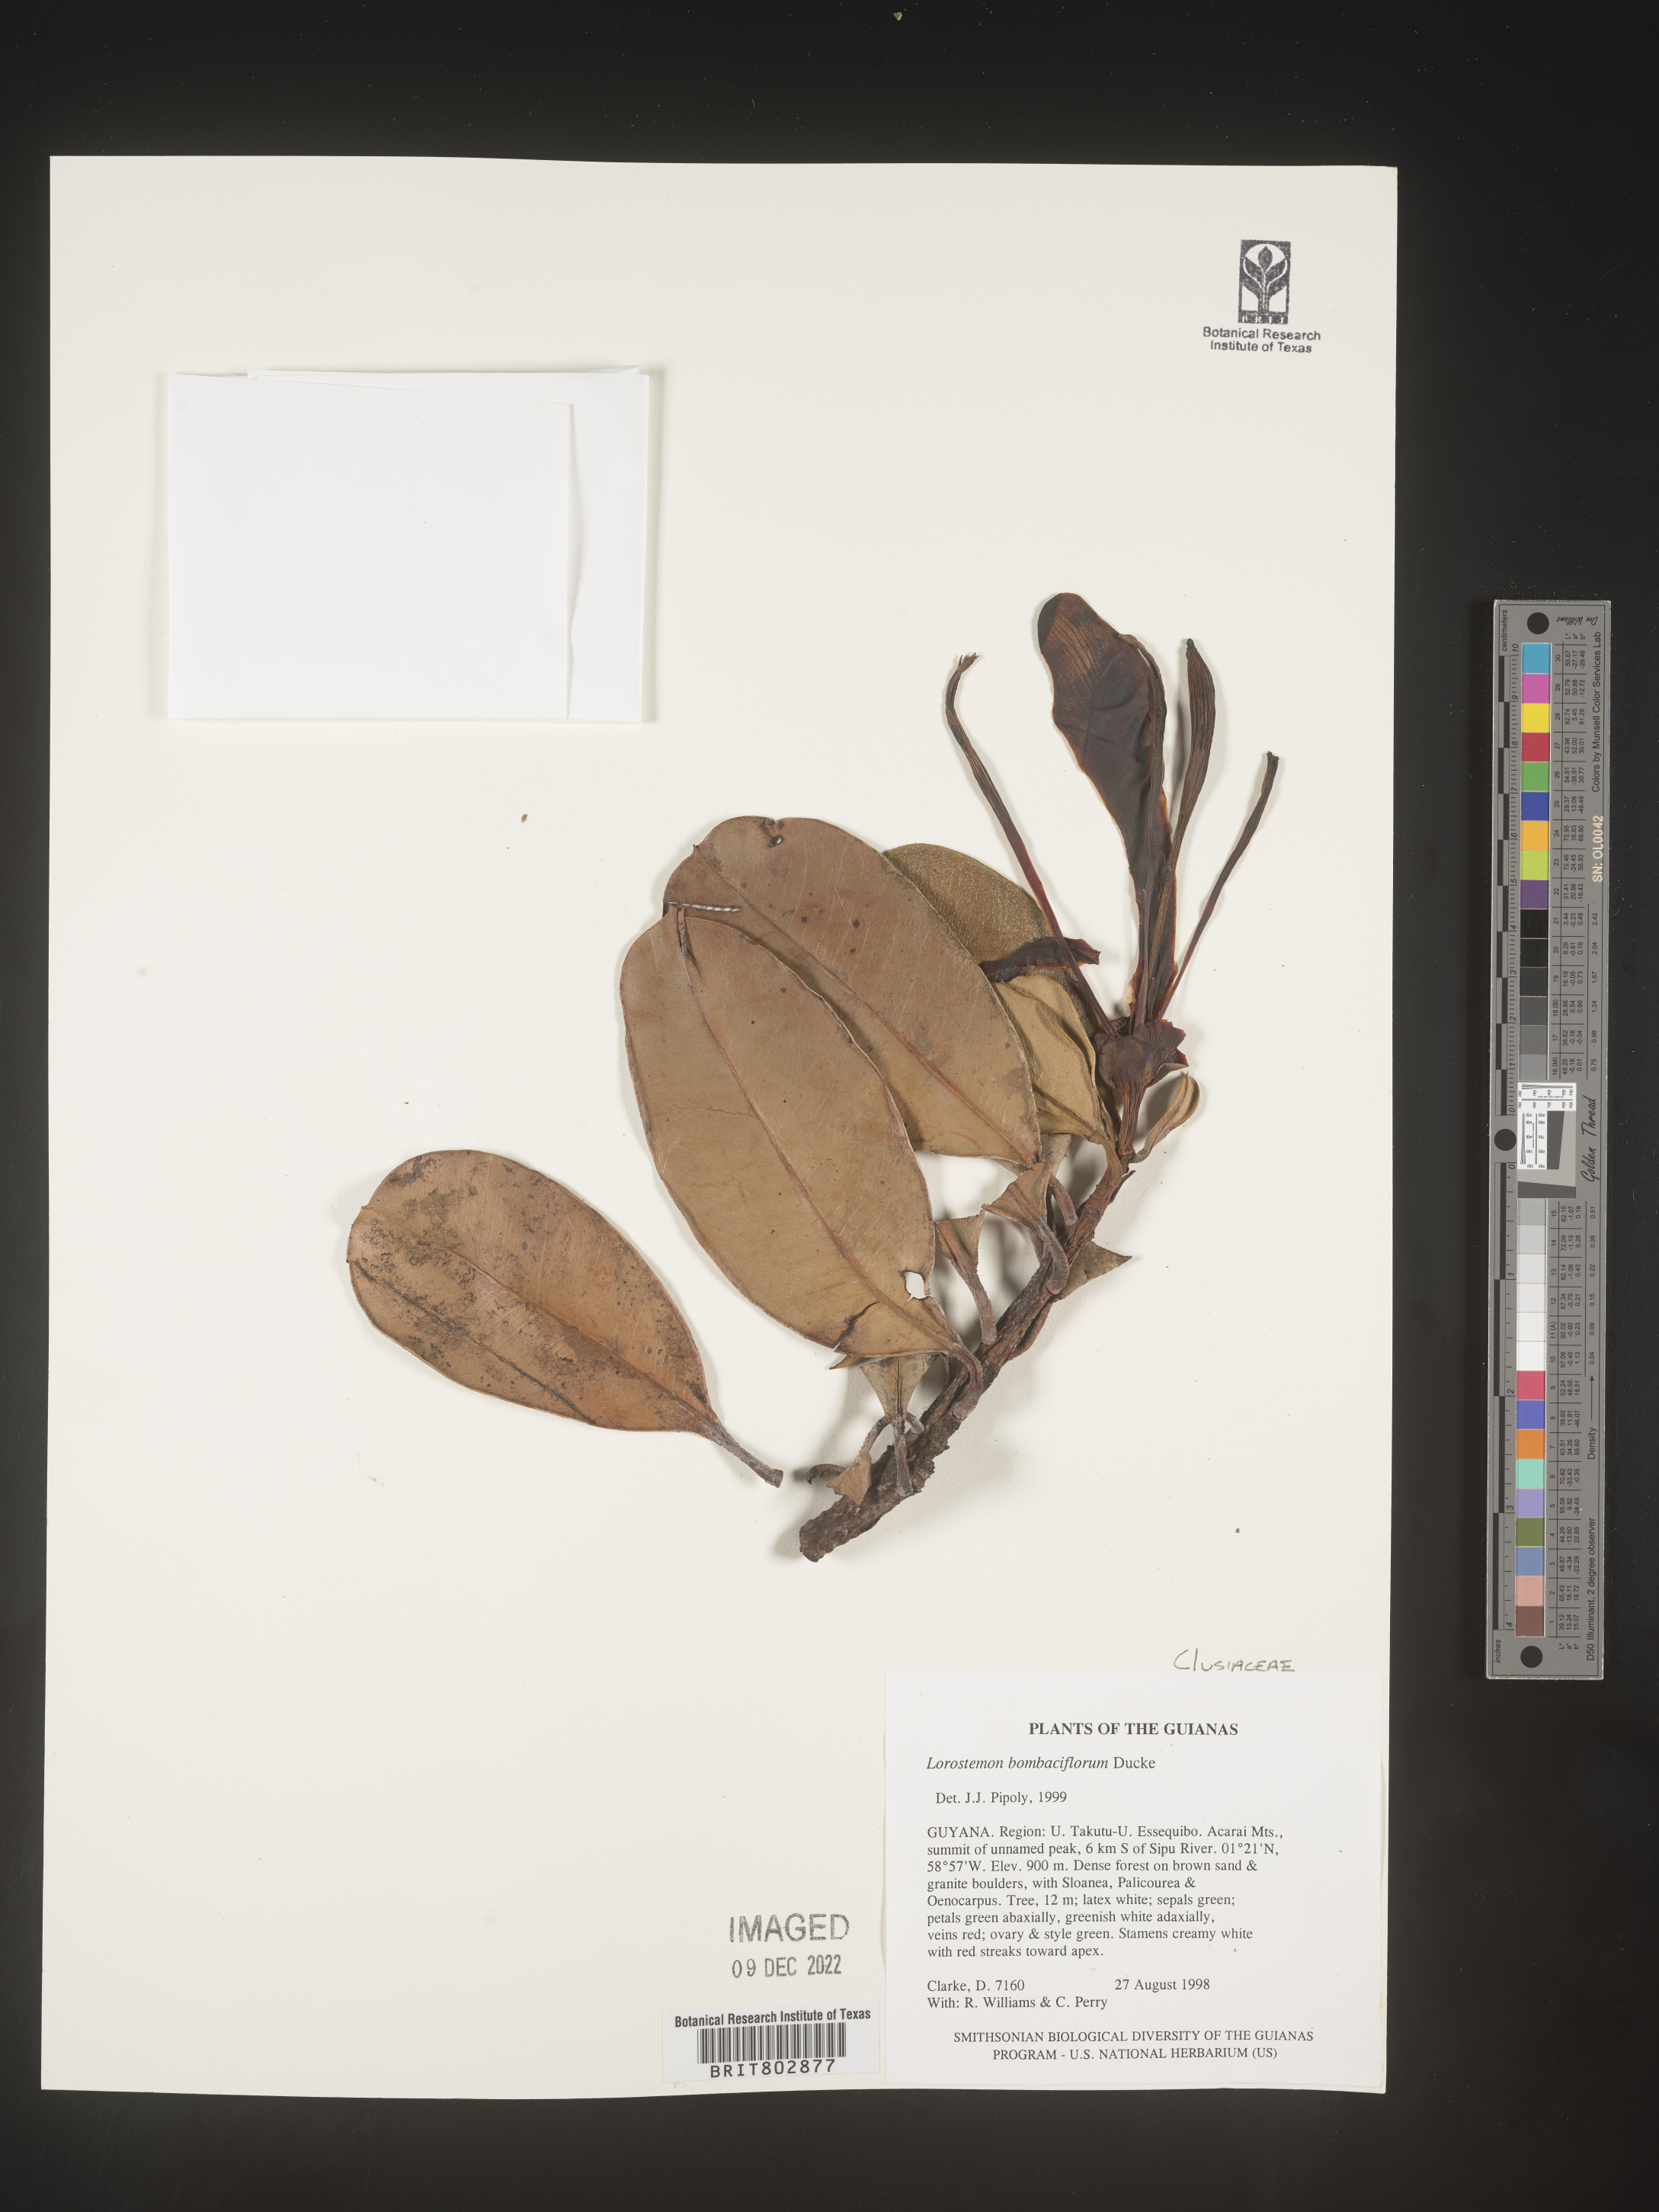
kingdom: Plantae
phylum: Tracheophyta
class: Magnoliopsida
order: Malpighiales
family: Clusiaceae
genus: Lorostemon
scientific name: Lorostemon
